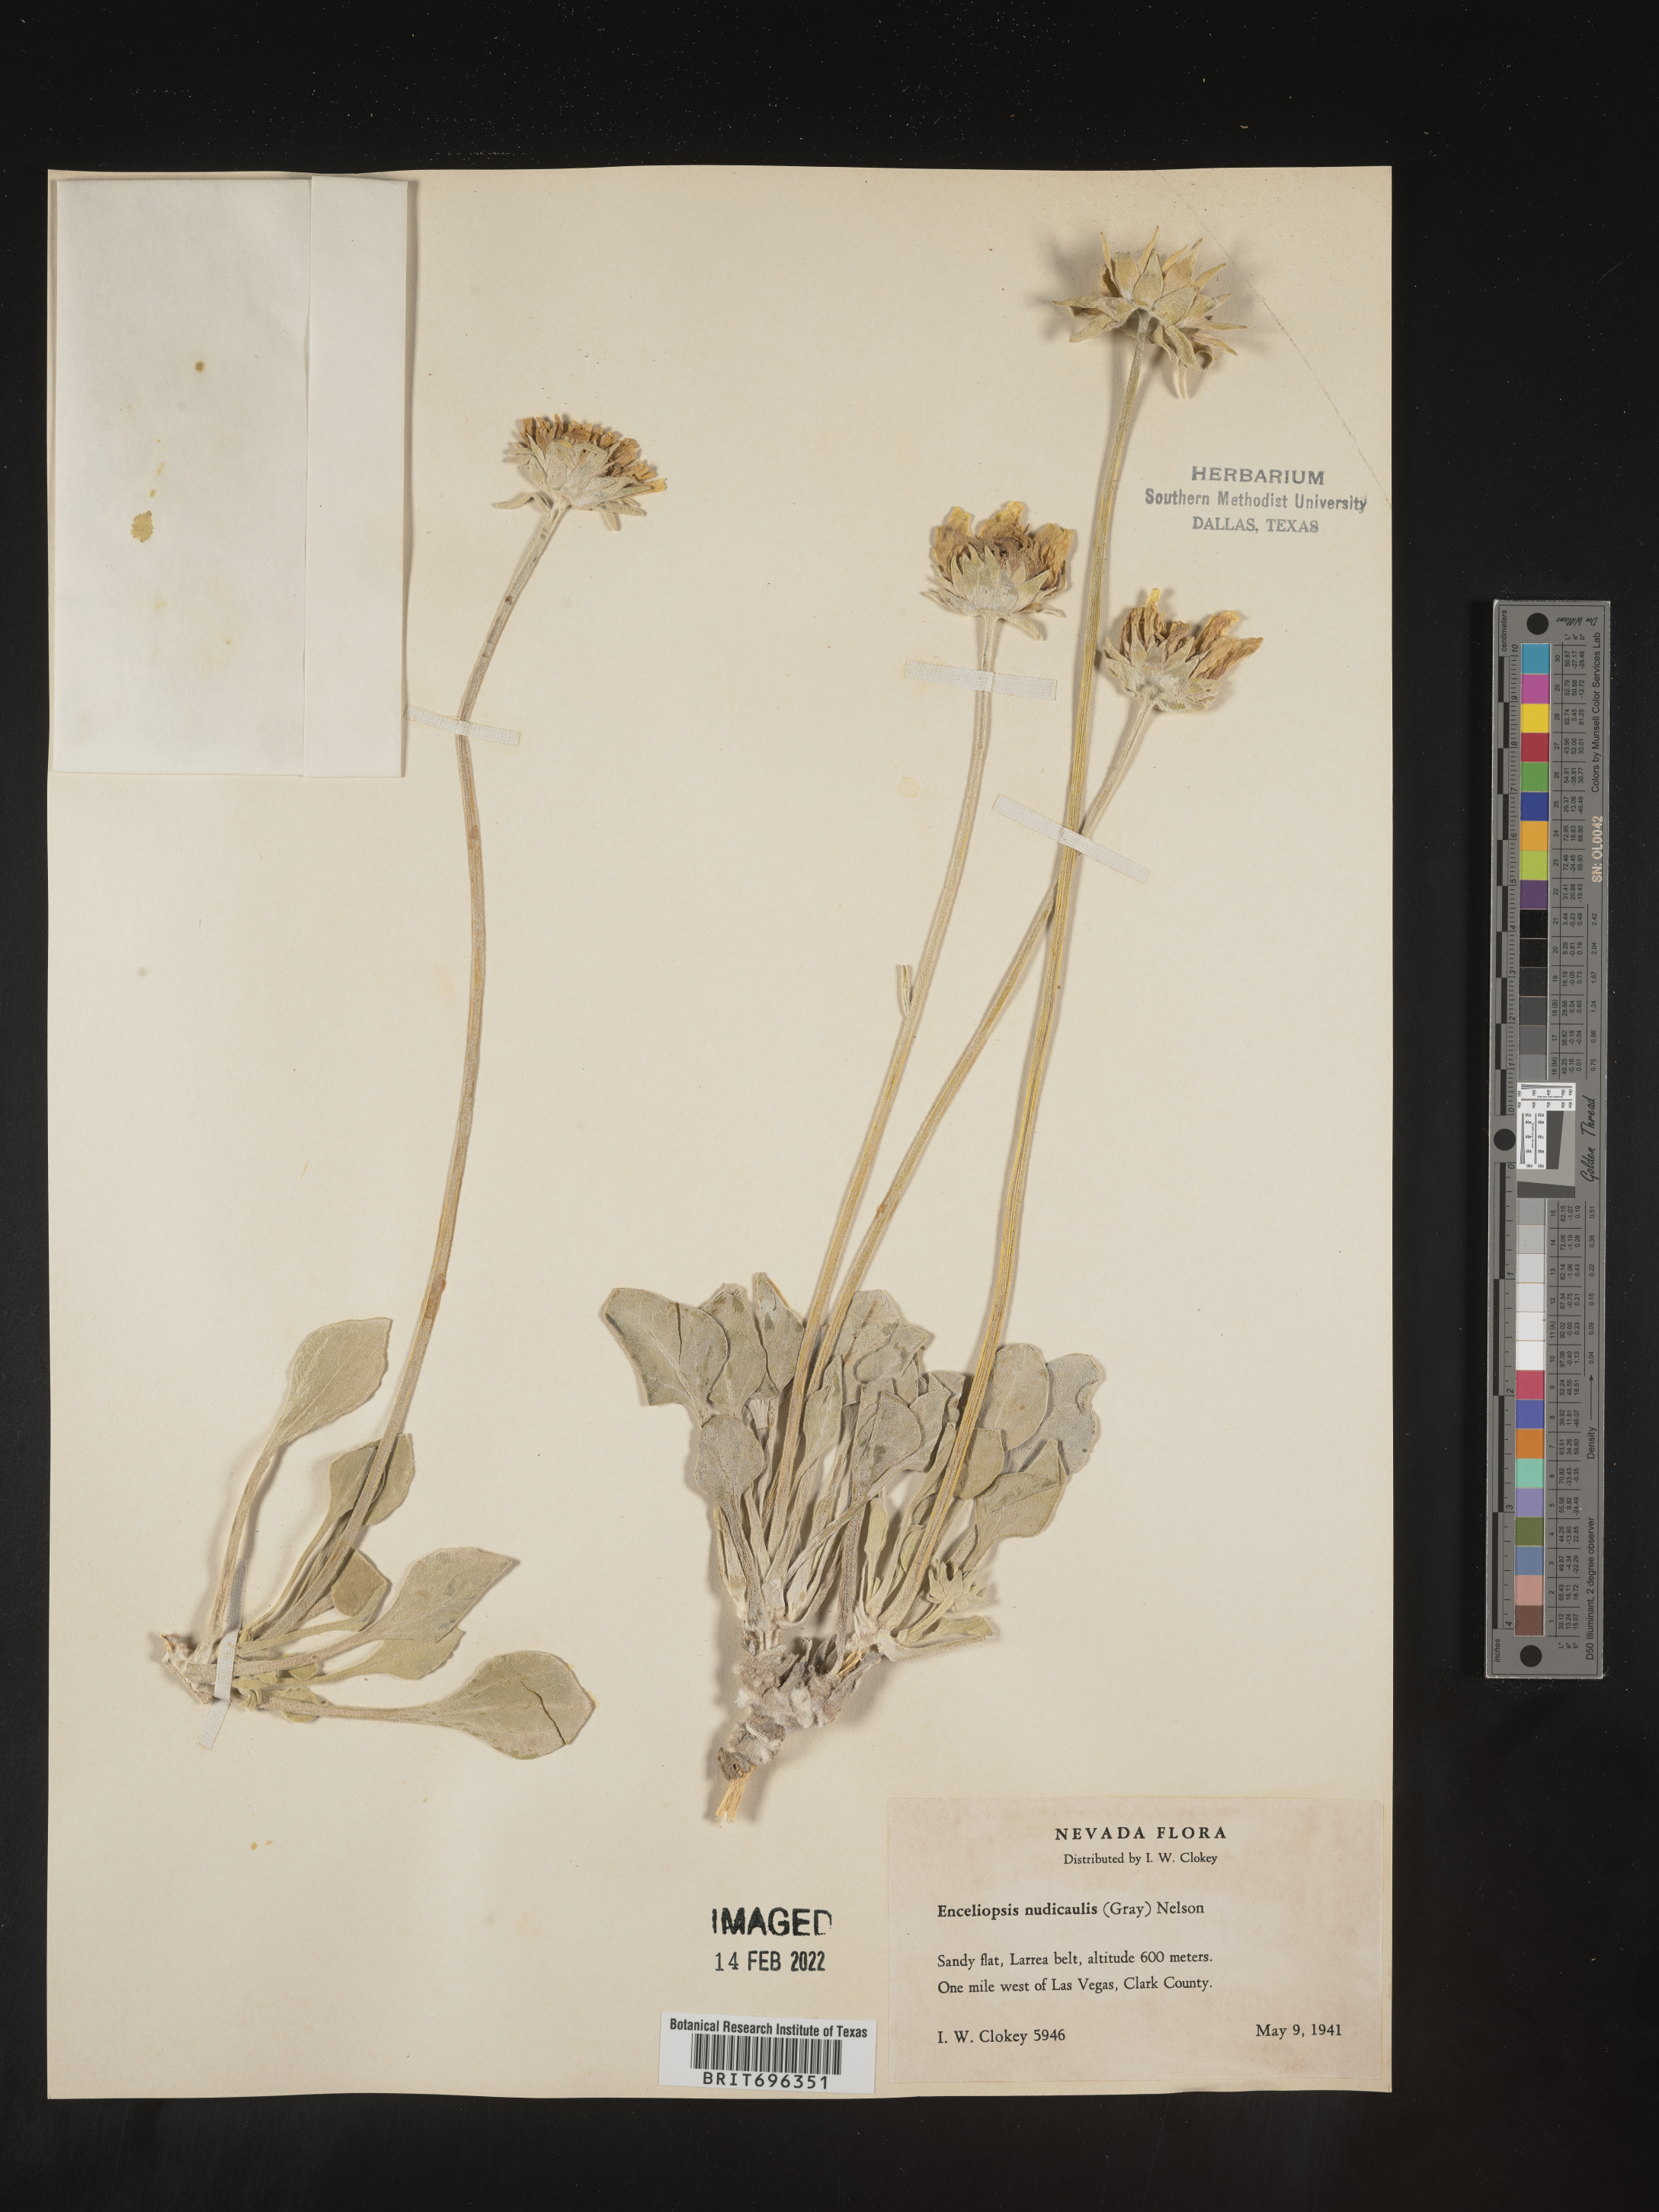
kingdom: Plantae
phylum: Tracheophyta
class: Magnoliopsida
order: Asterales
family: Asteraceae
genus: Enceliopsis
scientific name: Enceliopsis nudicaulis
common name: Naked-stem daisy
